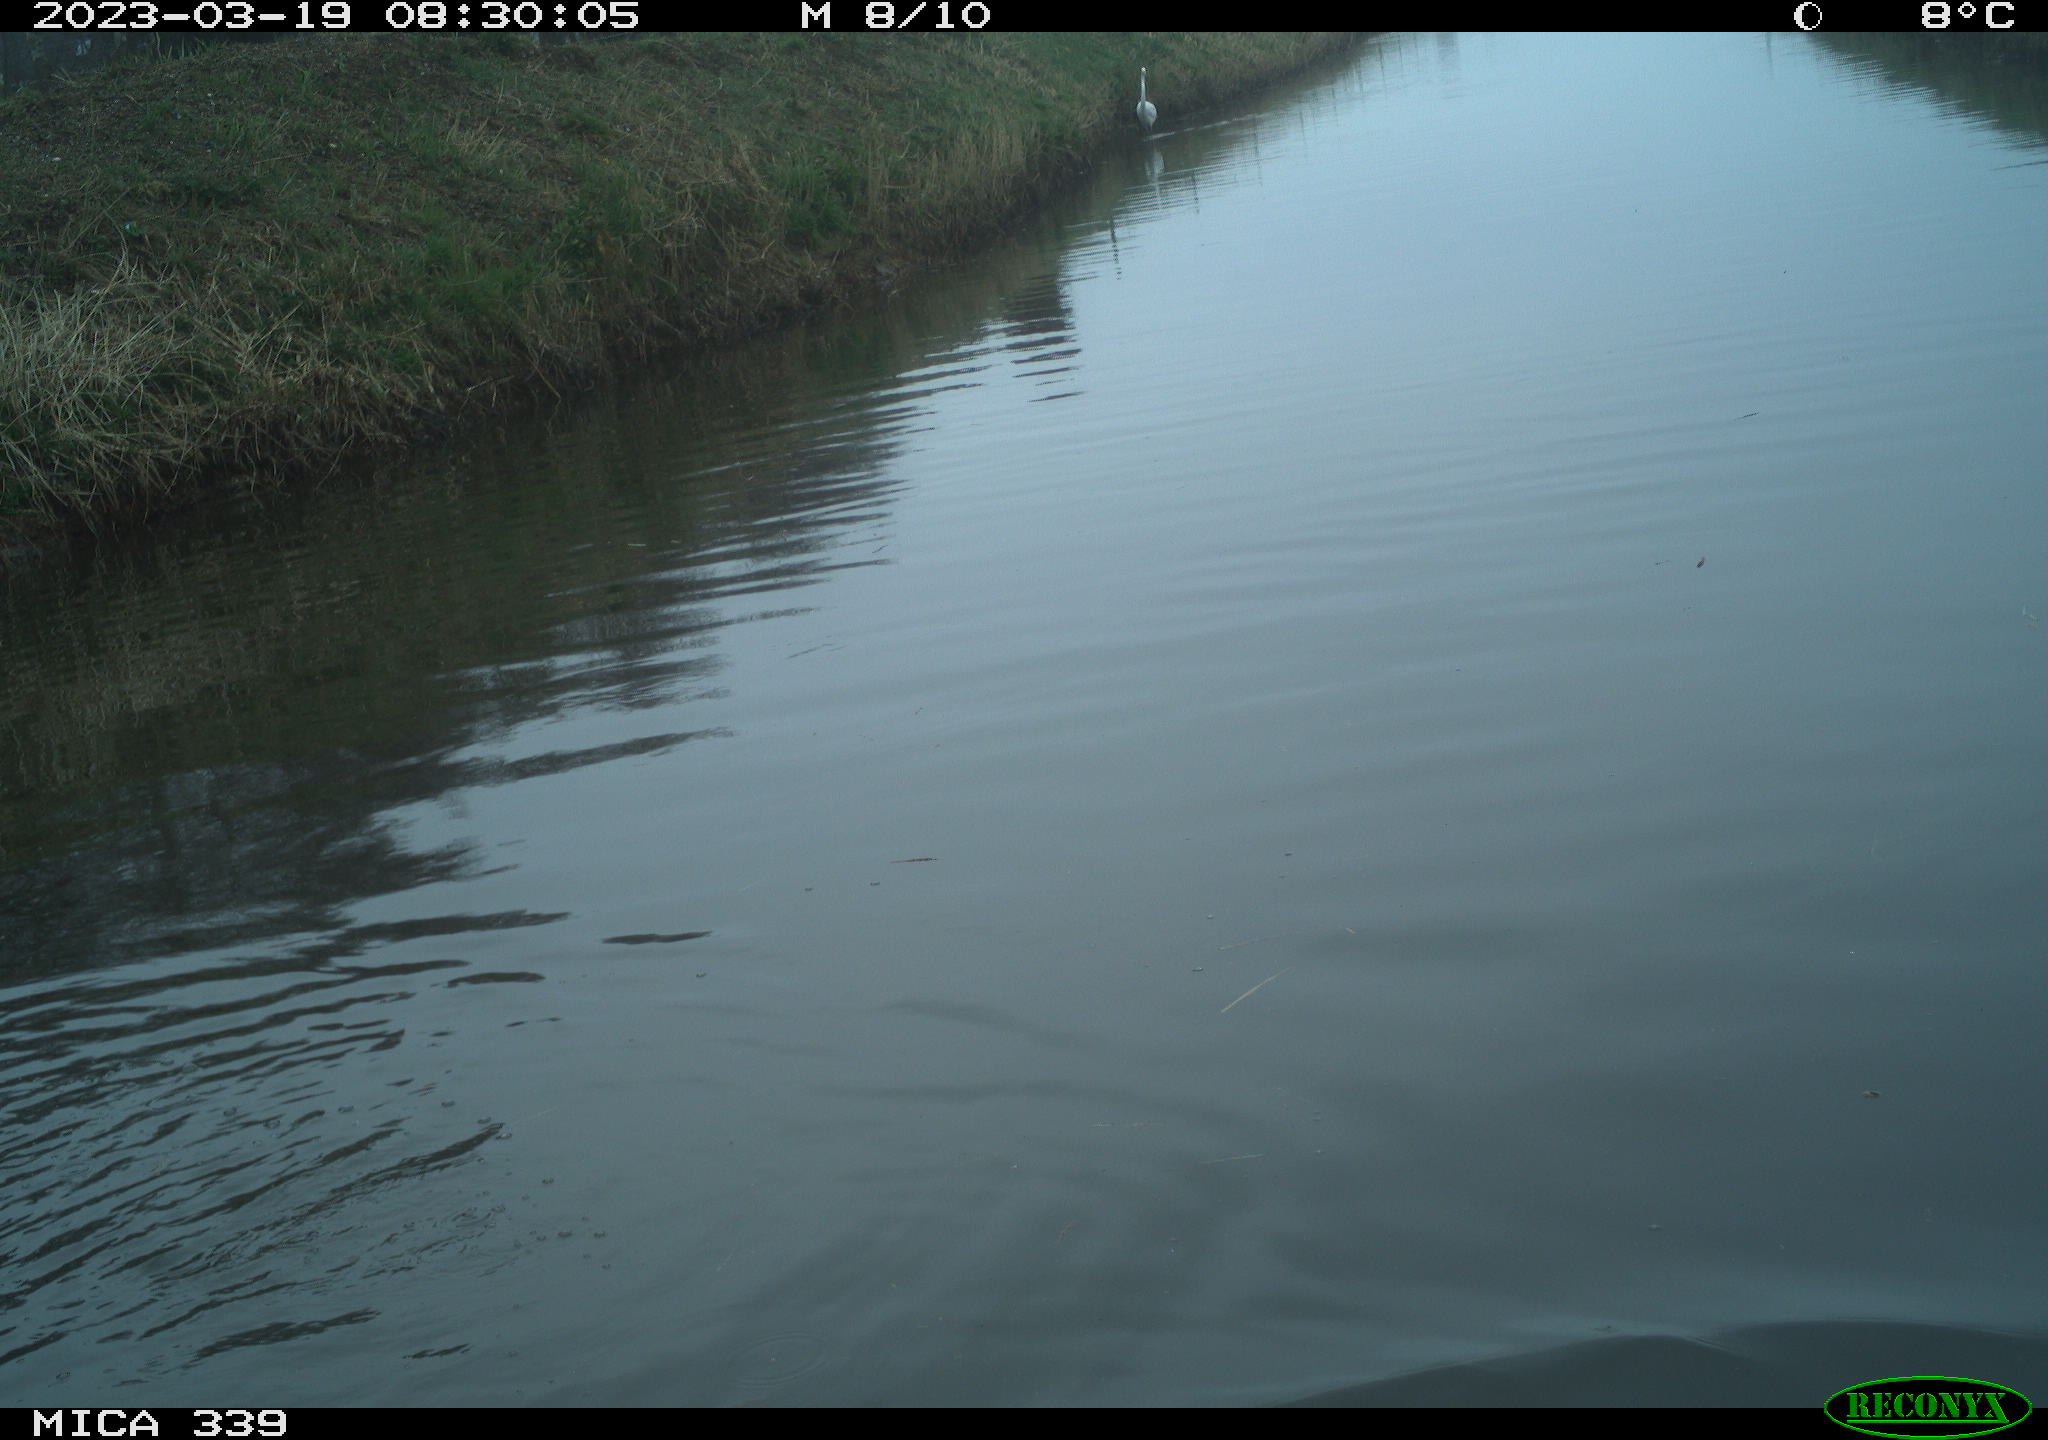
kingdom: Animalia
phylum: Chordata
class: Aves
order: Pelecaniformes
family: Ardeidae
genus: Ardea
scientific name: Ardea alba
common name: Great egret
